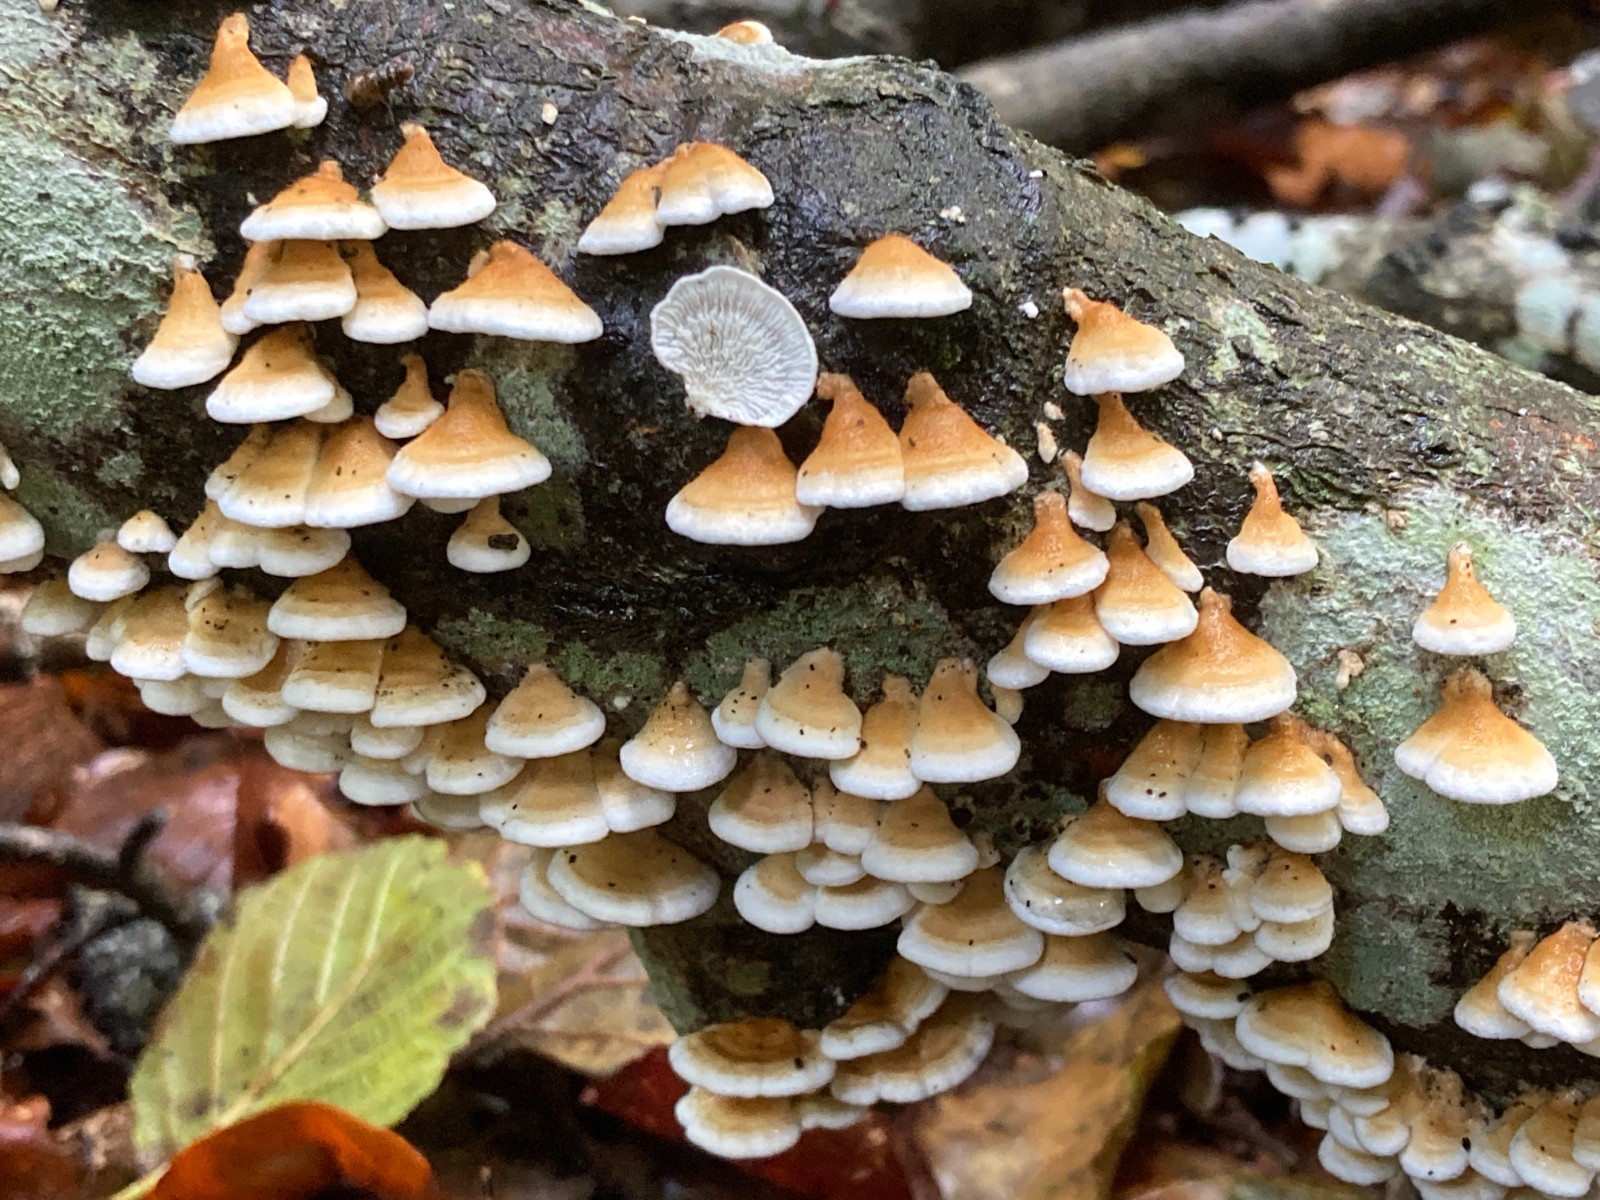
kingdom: Fungi
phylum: Basidiomycota
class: Agaricomycetes
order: Amylocorticiales
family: Amylocorticiaceae
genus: Plicaturopsis
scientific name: Plicaturopsis crispa
